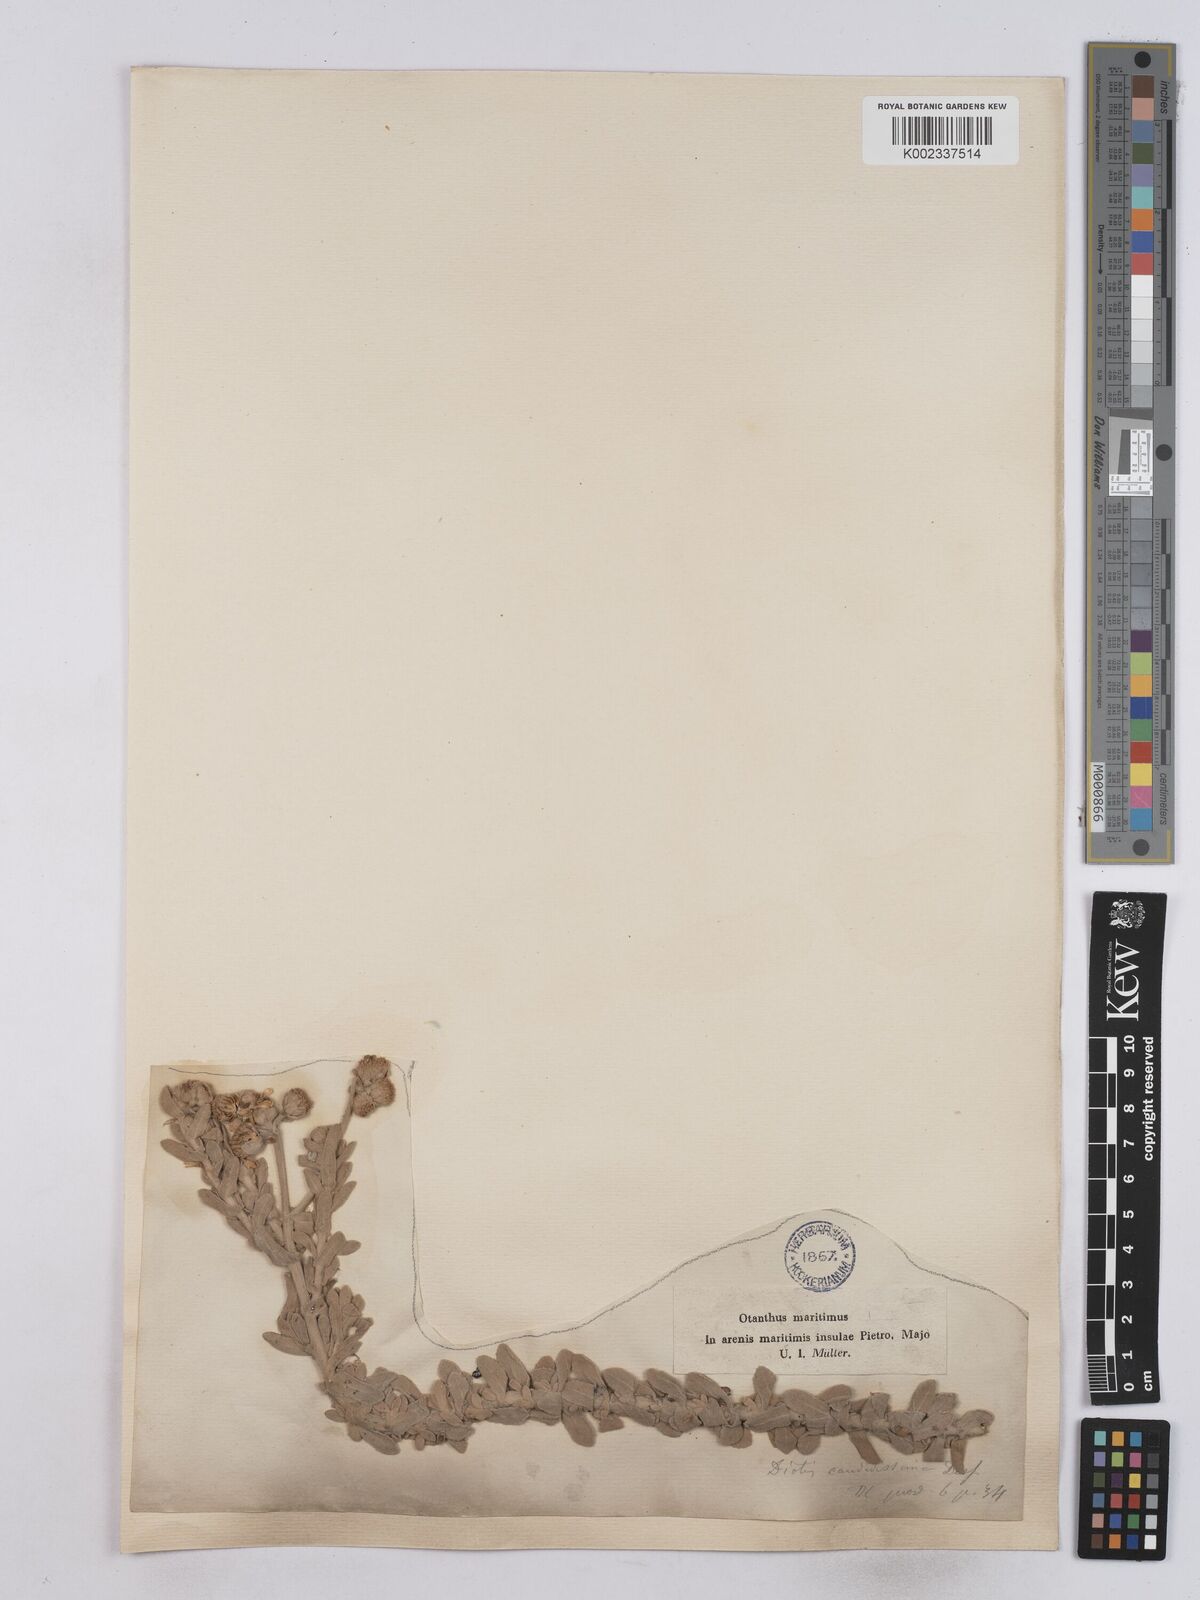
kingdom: Plantae
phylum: Tracheophyta
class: Magnoliopsida
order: Asterales
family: Asteraceae
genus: Achillea
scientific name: Achillea maritima
